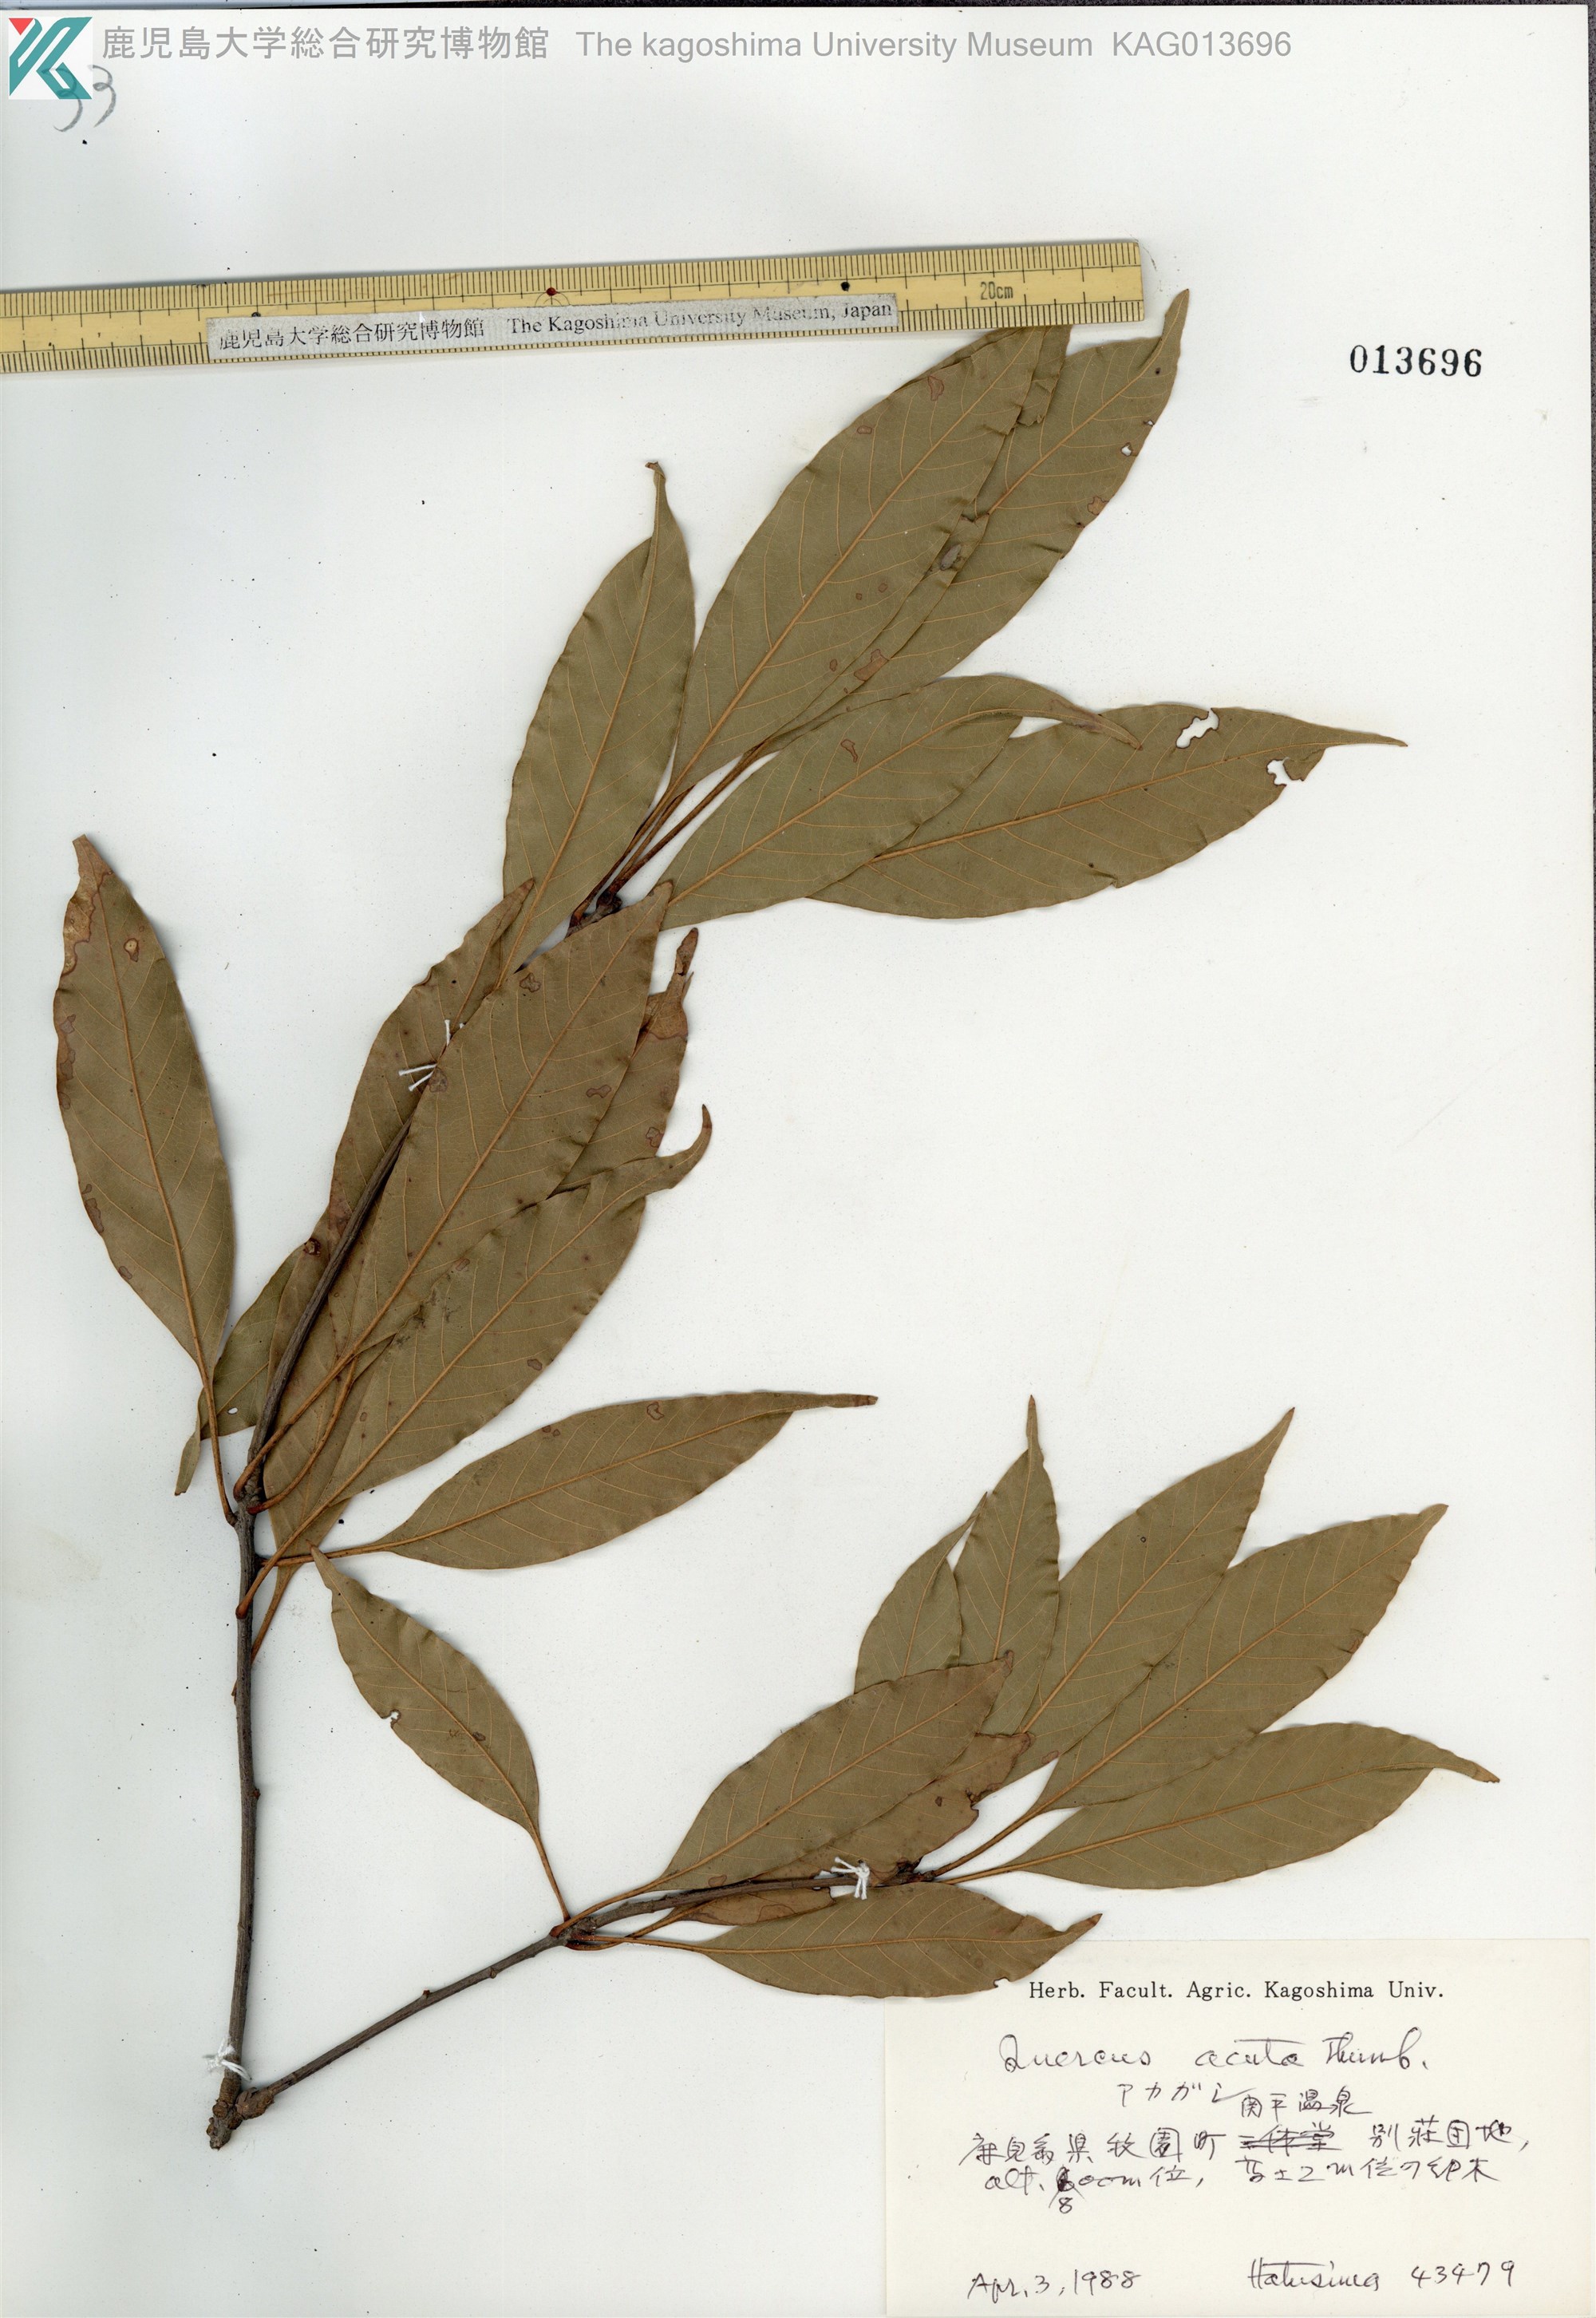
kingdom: Plantae
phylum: Tracheophyta
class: Magnoliopsida
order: Fagales
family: Fagaceae
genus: Quercus
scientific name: Quercus acuta
